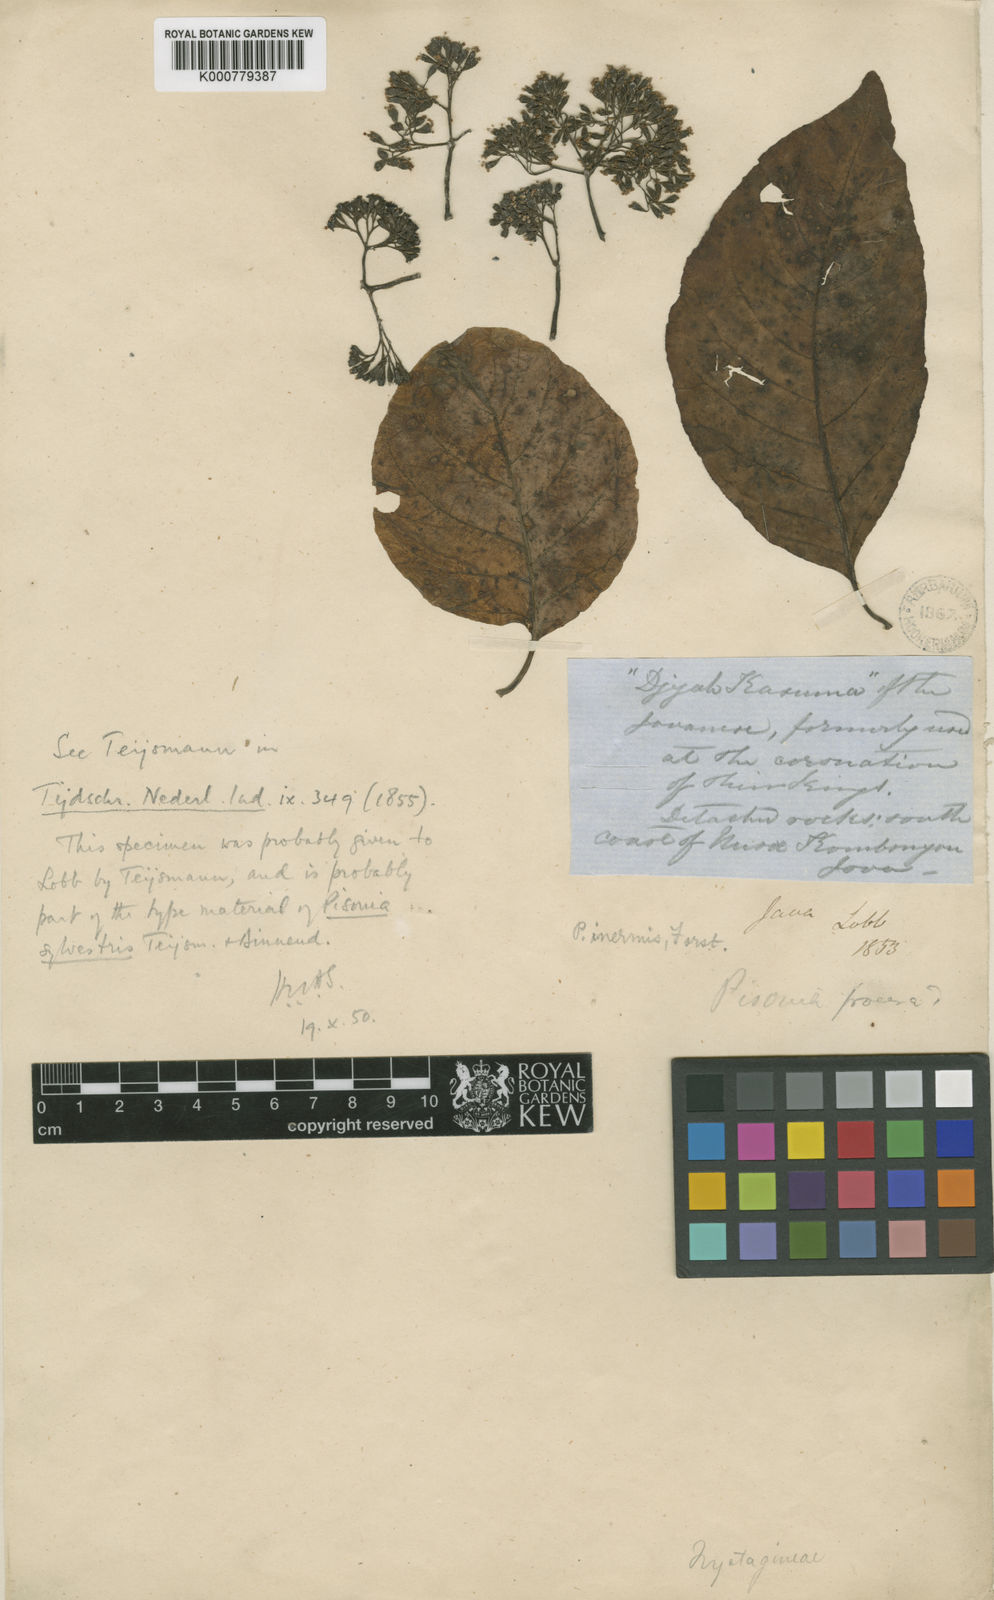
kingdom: Plantae
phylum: Tracheophyta
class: Magnoliopsida
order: Caryophyllales
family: Nyctaginaceae
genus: Ceodes
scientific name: Ceodes grandis
